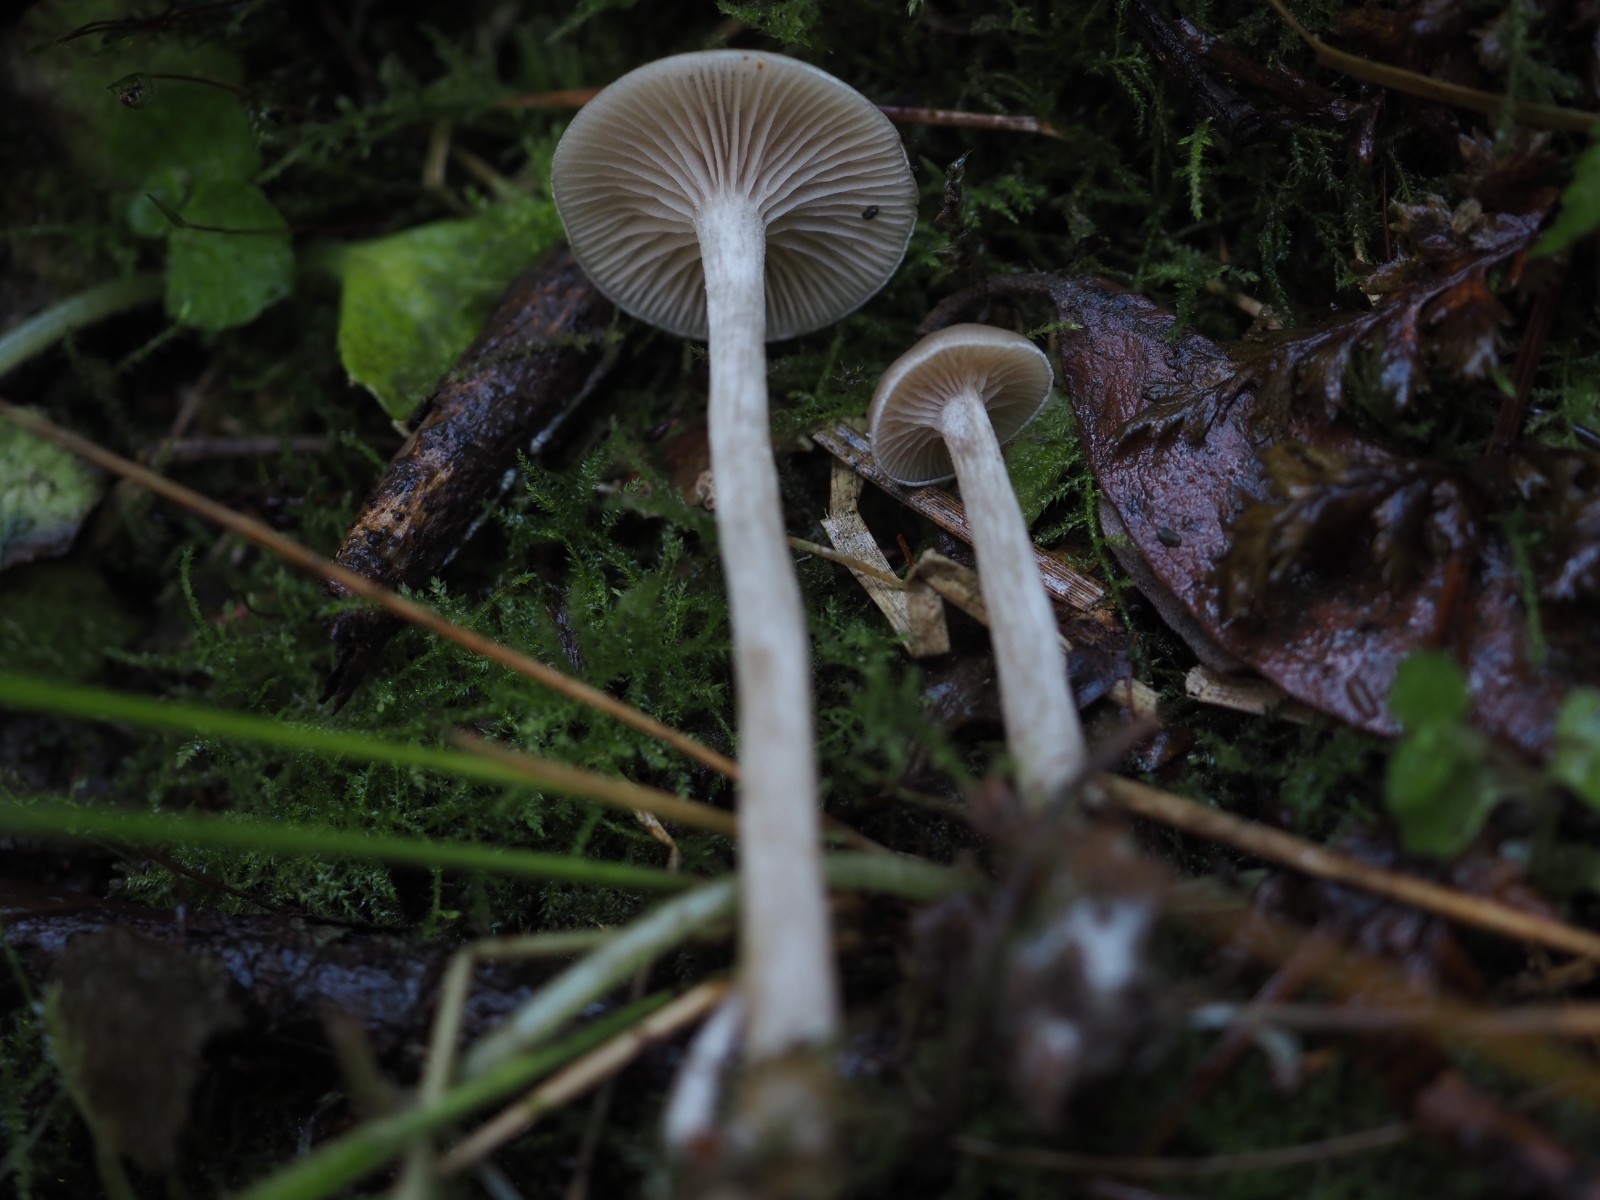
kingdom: Fungi
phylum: Basidiomycota
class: Agaricomycetes
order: Agaricales
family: Tricholomataceae
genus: Clitocybe
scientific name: Clitocybe fragrans
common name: vellugtende tragthat
